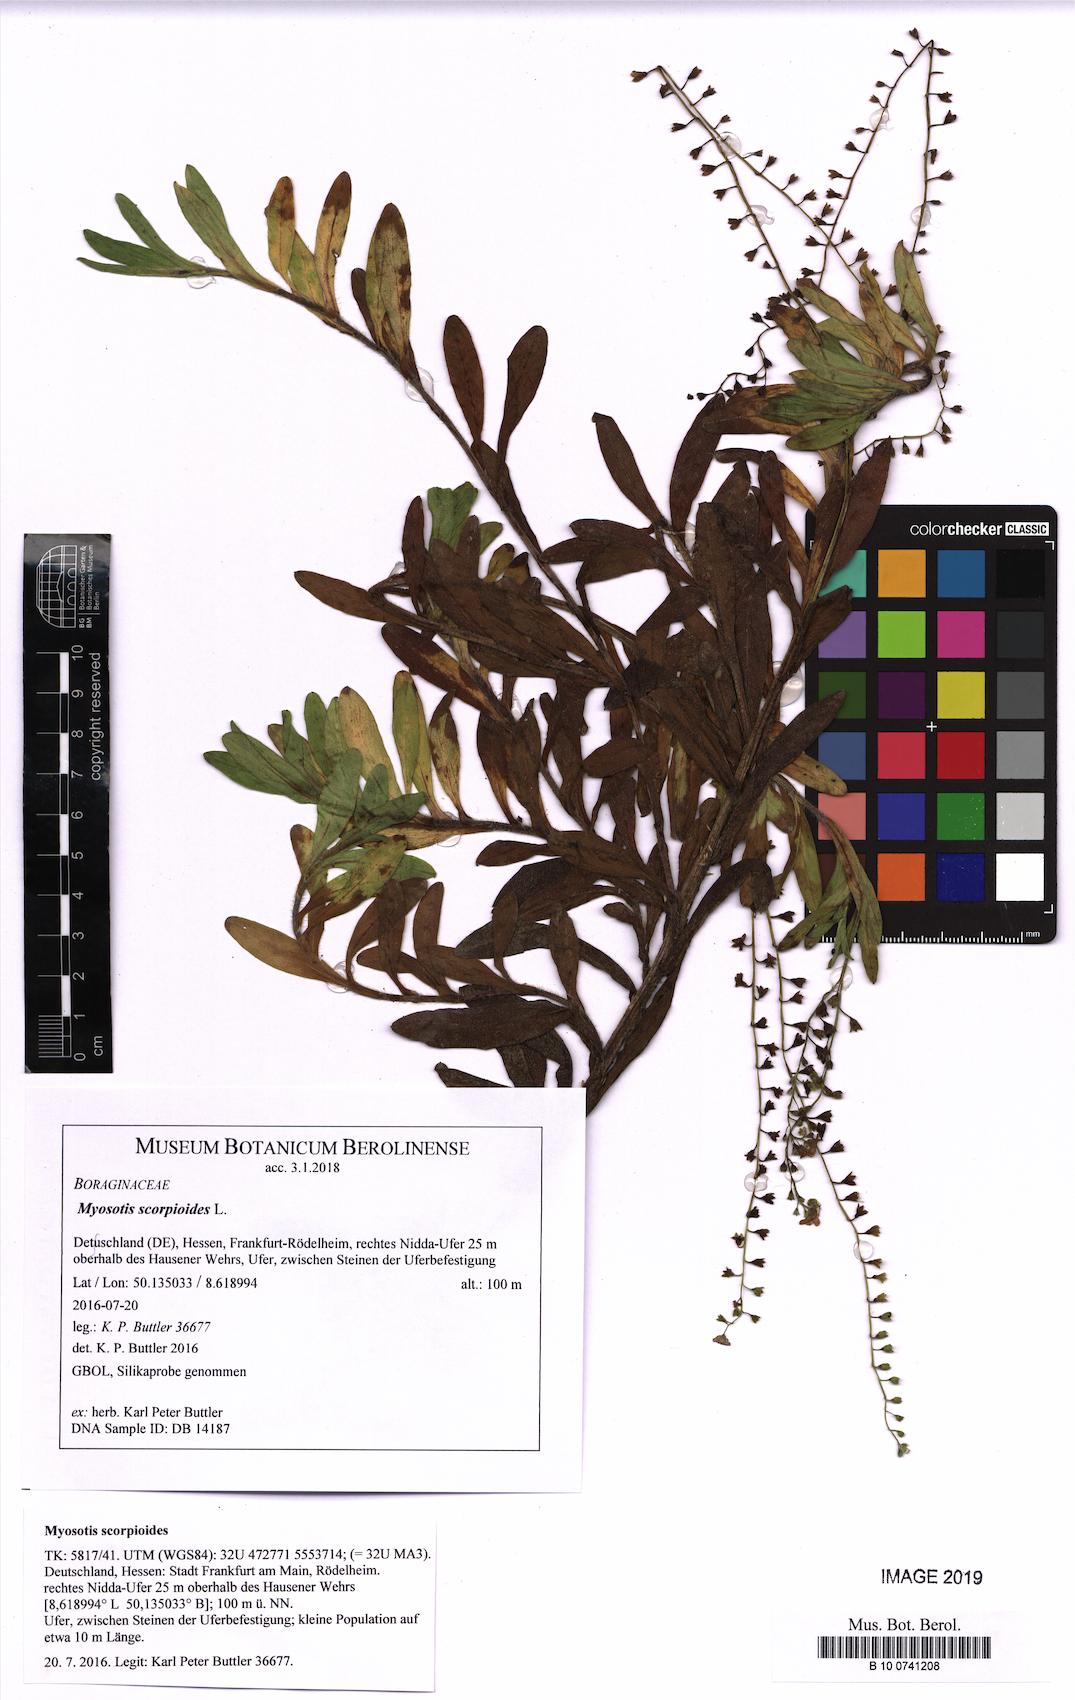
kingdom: Plantae
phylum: Tracheophyta
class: Magnoliopsida
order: Boraginales
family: Boraginaceae
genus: Myosotis
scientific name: Myosotis scorpioides
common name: Water forget-me-not
